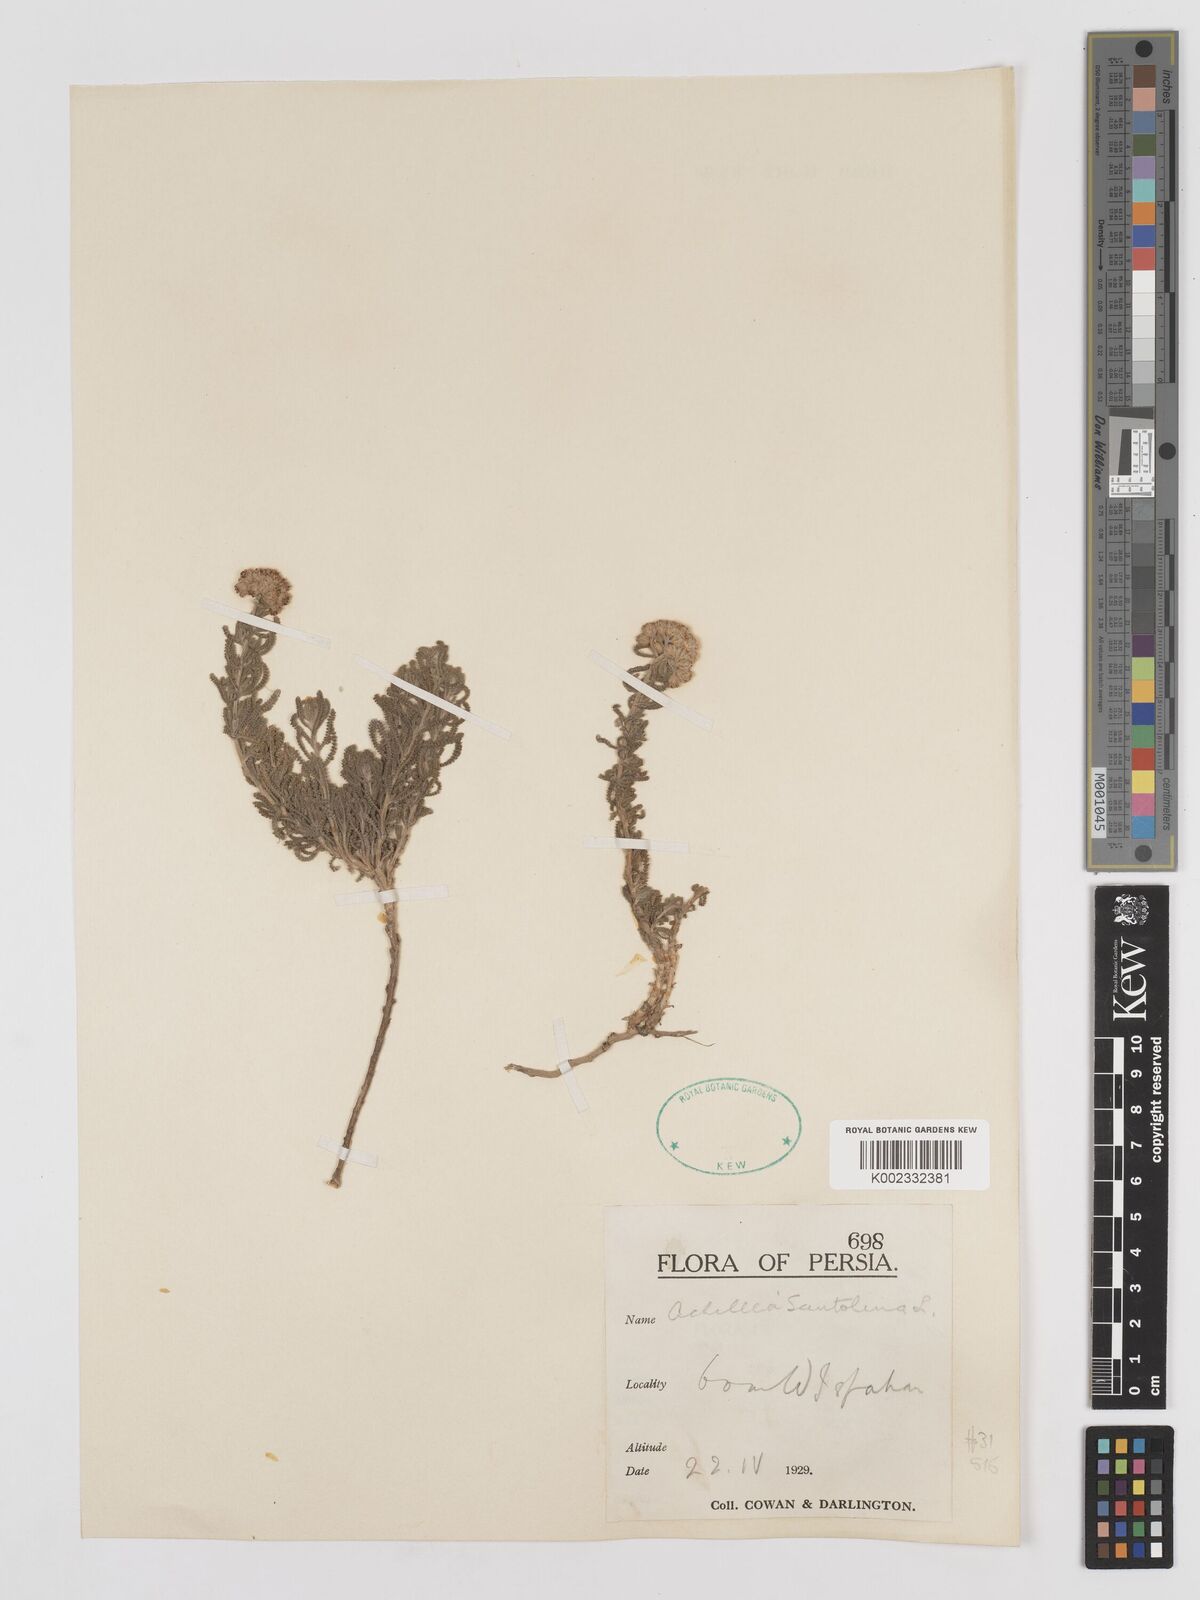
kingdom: Plantae
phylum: Tracheophyta
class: Magnoliopsida
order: Asterales
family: Asteraceae
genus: Achillea
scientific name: Achillea cretica
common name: Chamomile-leaved lavender-cotton
